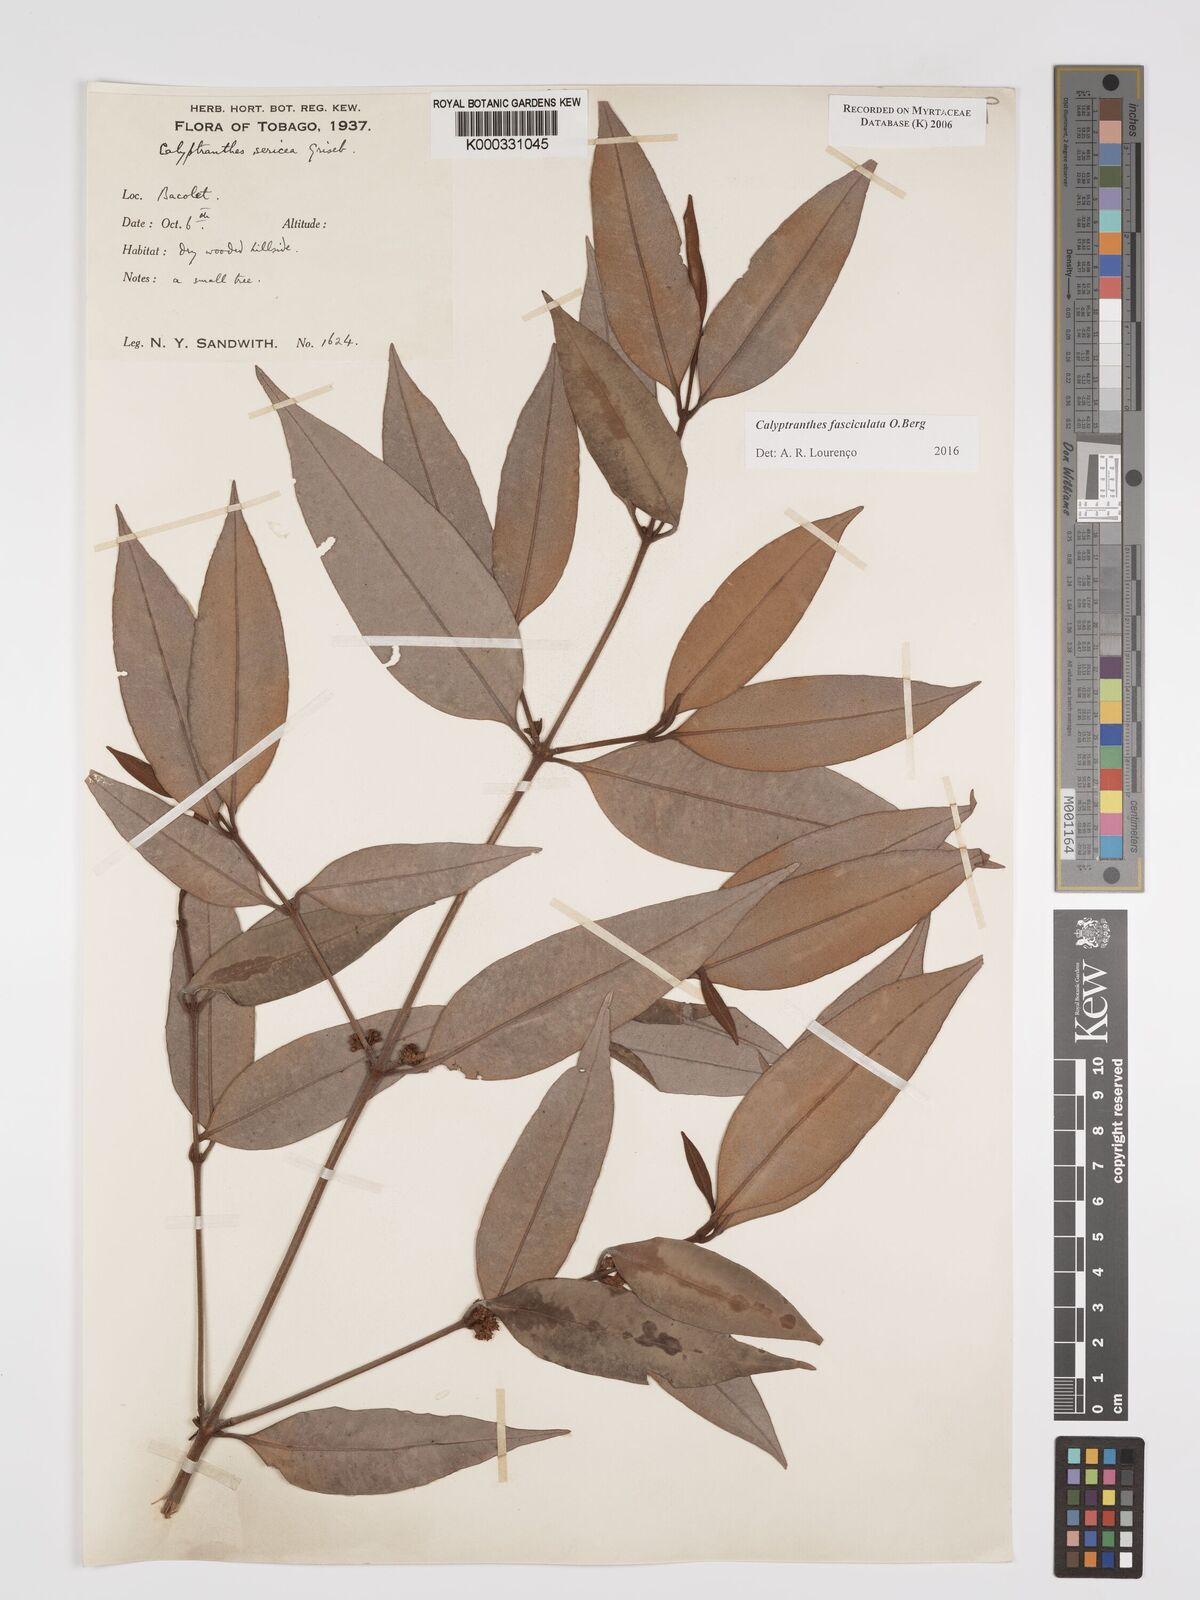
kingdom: Plantae
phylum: Tracheophyta
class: Magnoliopsida
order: Myrtales
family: Myrtaceae
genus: Myrcia
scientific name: Myrcia fasciculata
